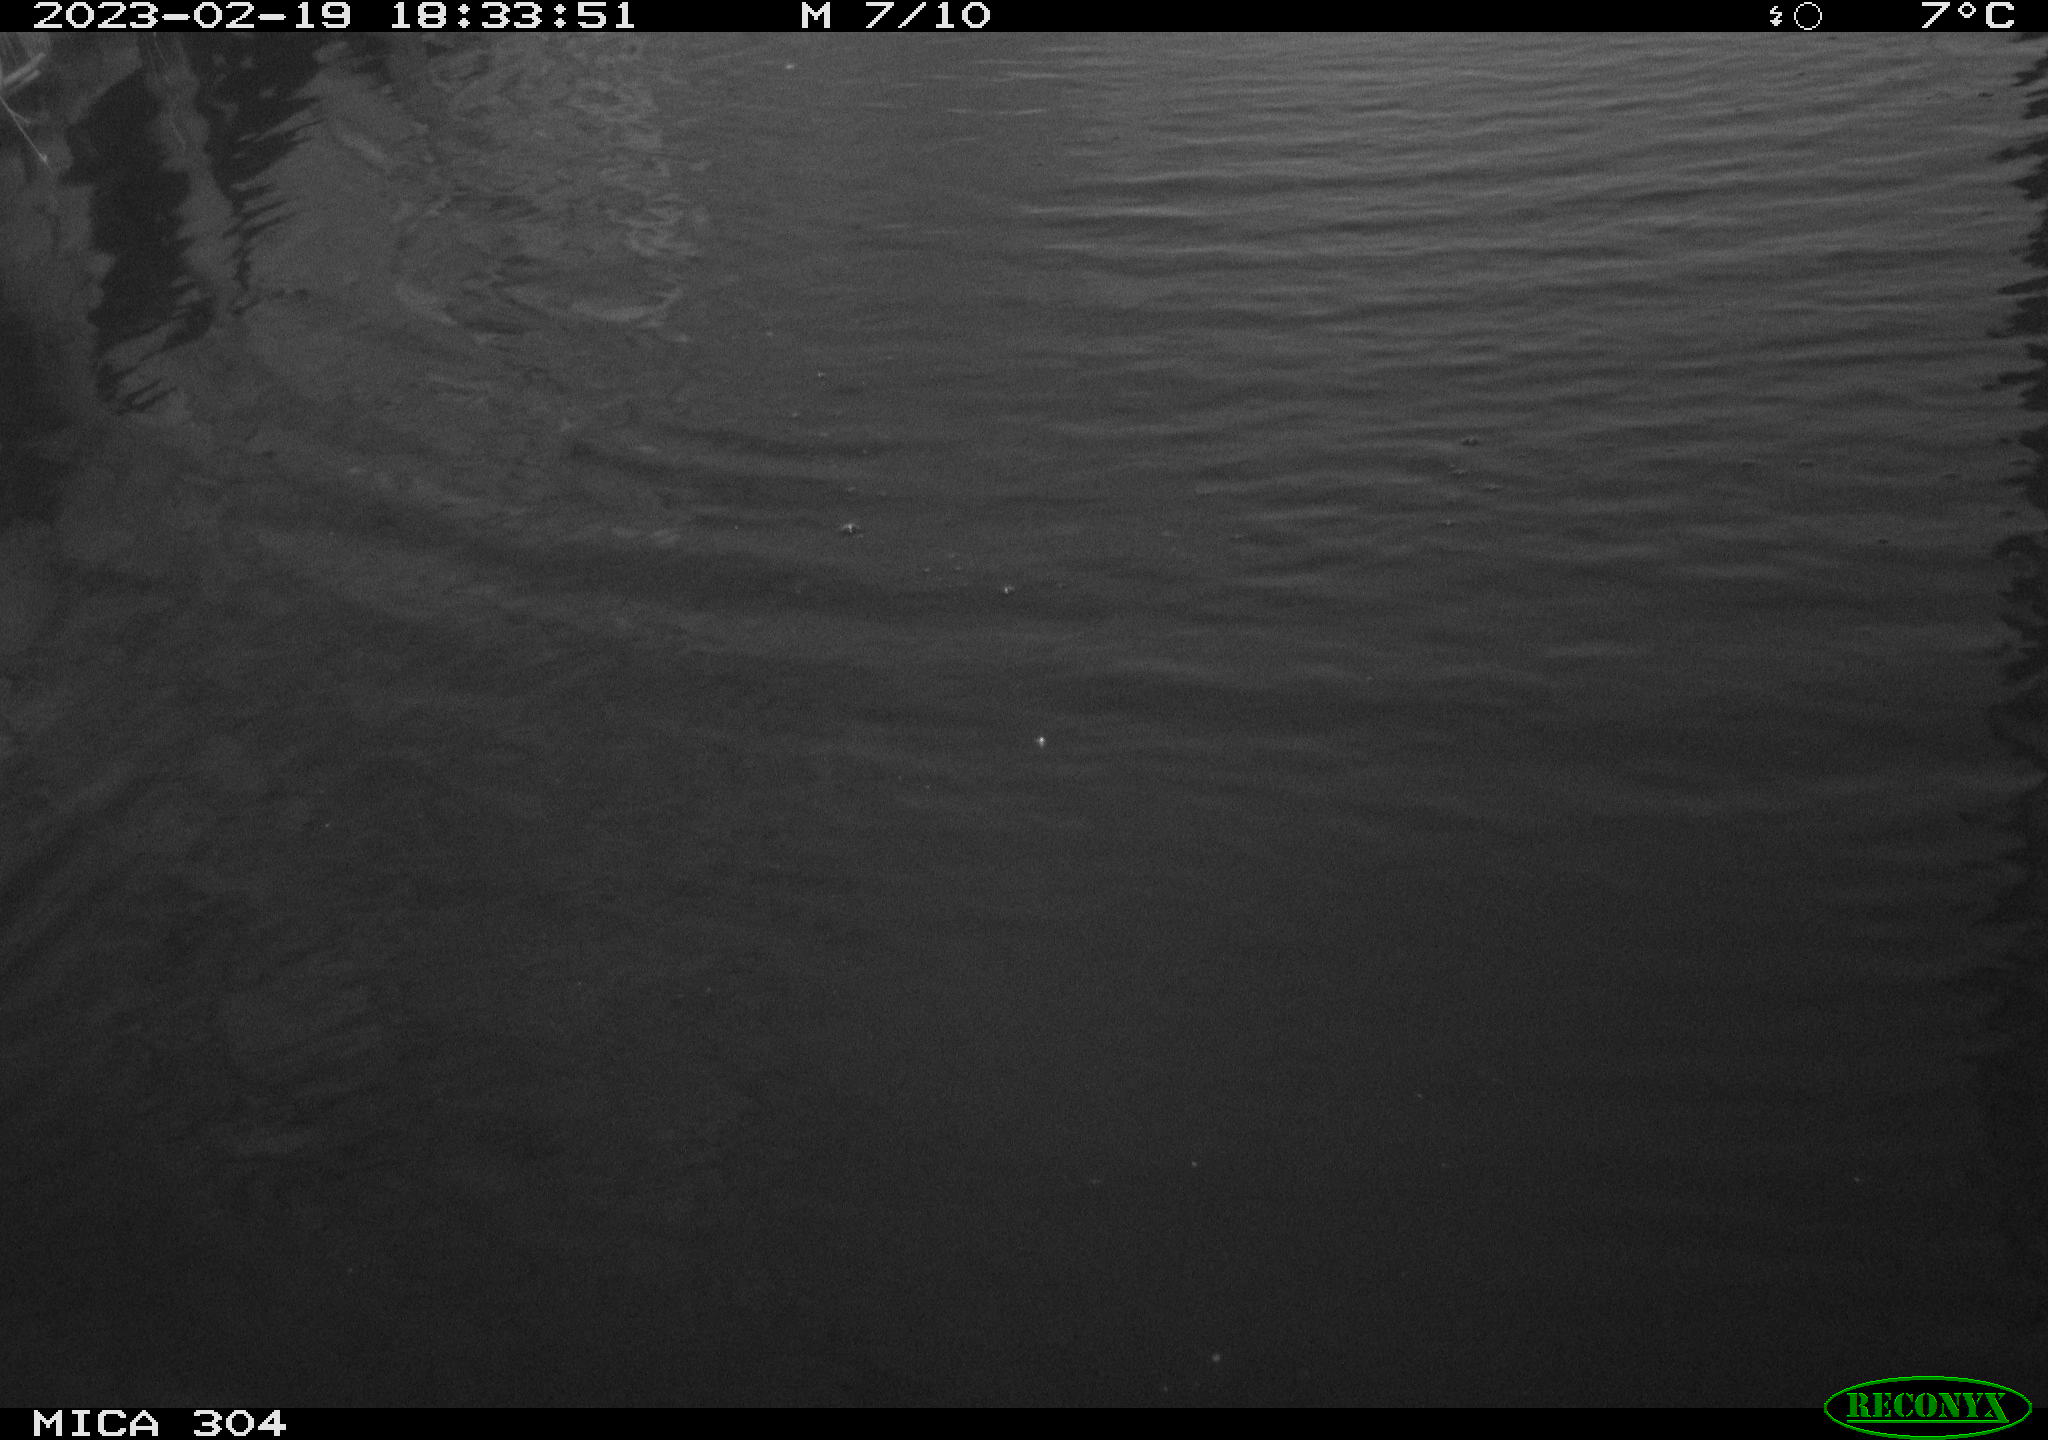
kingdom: Animalia
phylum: Chordata
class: Aves
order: Gruiformes
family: Rallidae
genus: Gallinula
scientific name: Gallinula chloropus
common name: Common moorhen
